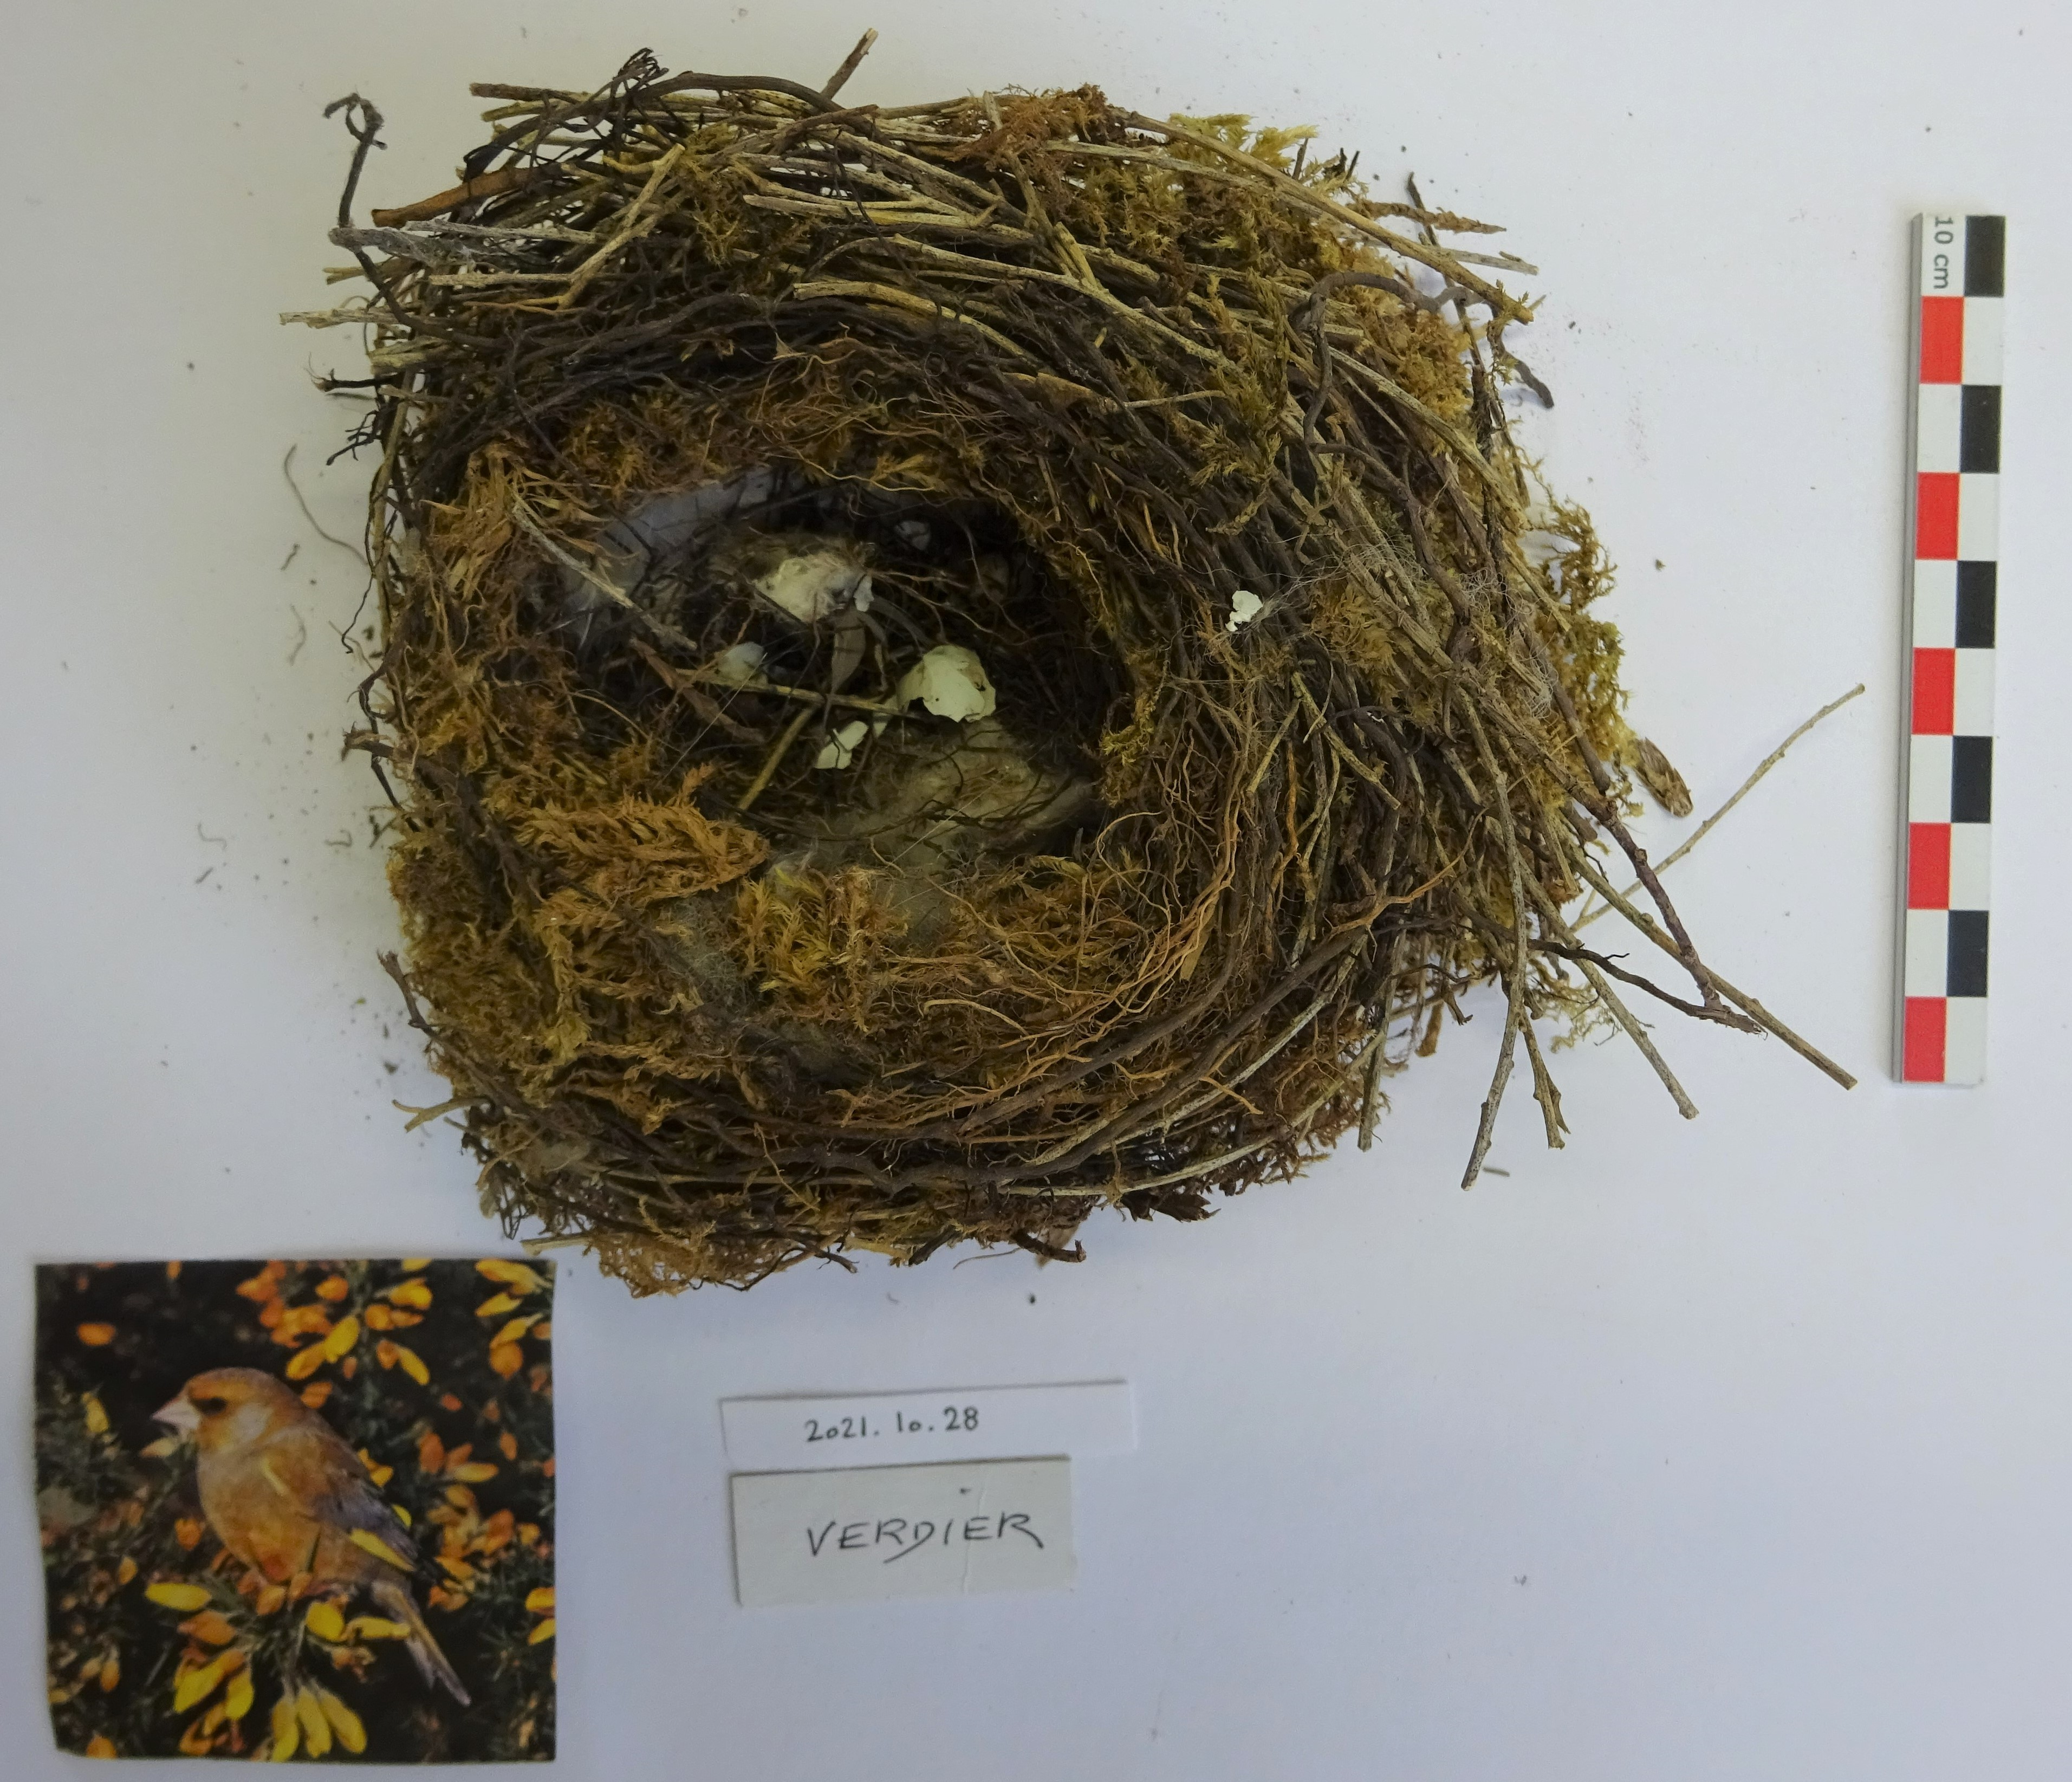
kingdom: Plantae
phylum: Tracheophyta
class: Liliopsida
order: Poales
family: Poaceae
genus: Chloris
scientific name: Chloris chloris
